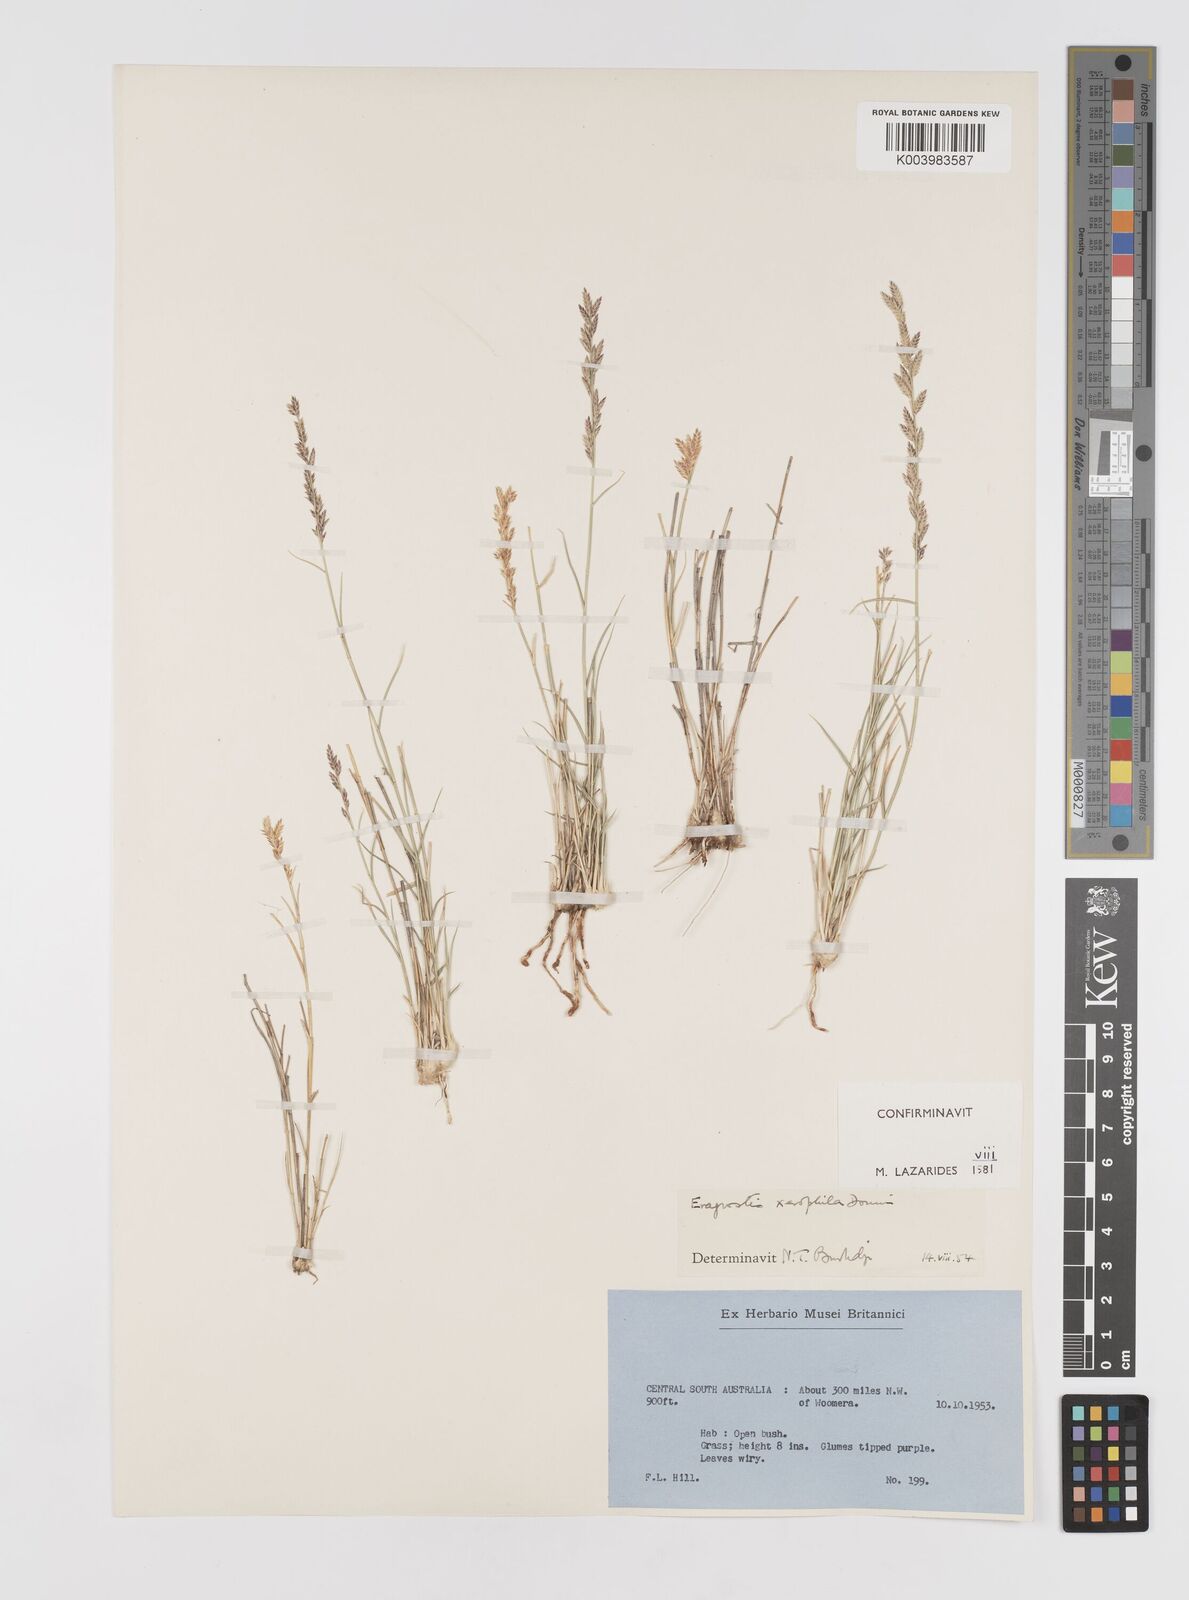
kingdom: Plantae
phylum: Tracheophyta
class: Liliopsida
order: Poales
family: Poaceae
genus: Eragrostis
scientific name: Eragrostis xerophila
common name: Wire wandarrie grass
